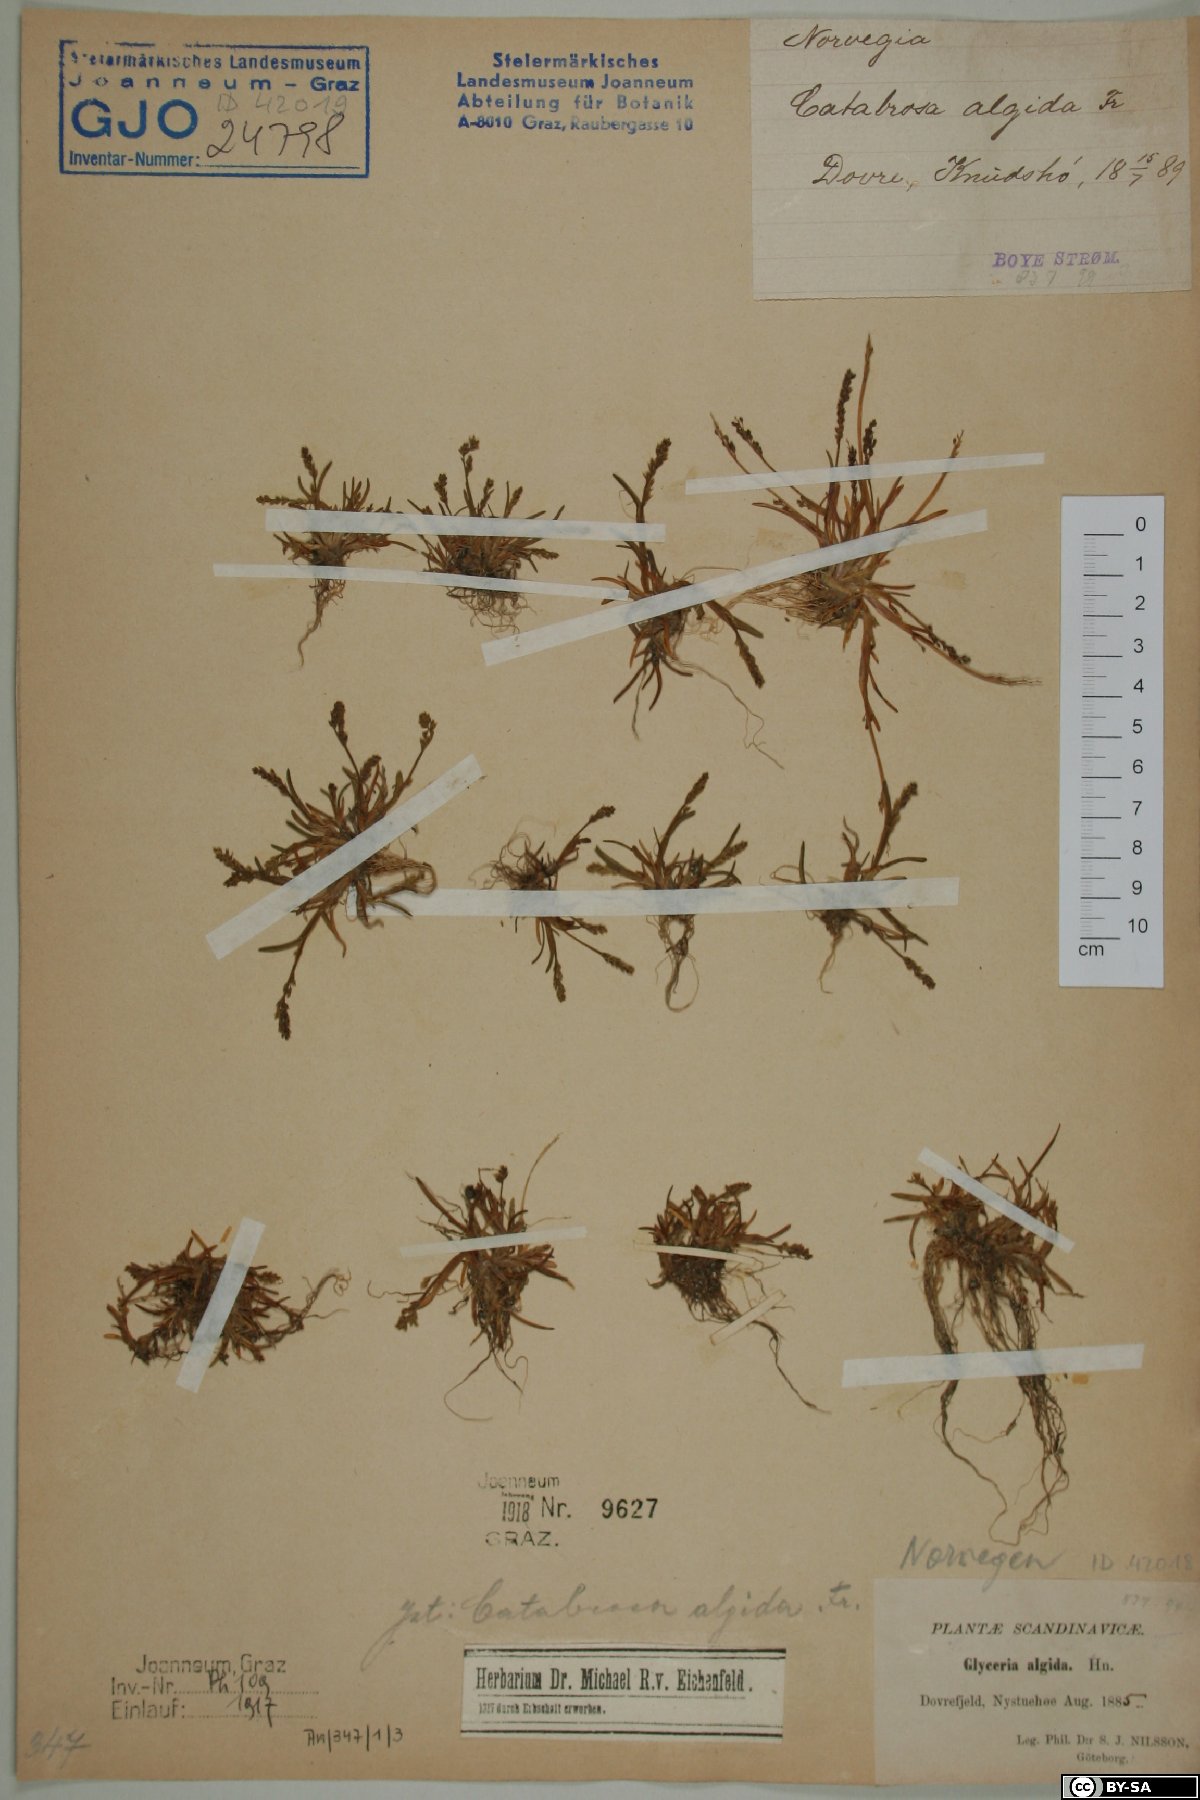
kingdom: Plantae
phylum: Tracheophyta
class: Liliopsida
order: Poales
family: Poaceae
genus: Phippsia
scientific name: Phippsia algida
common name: Ice grass
